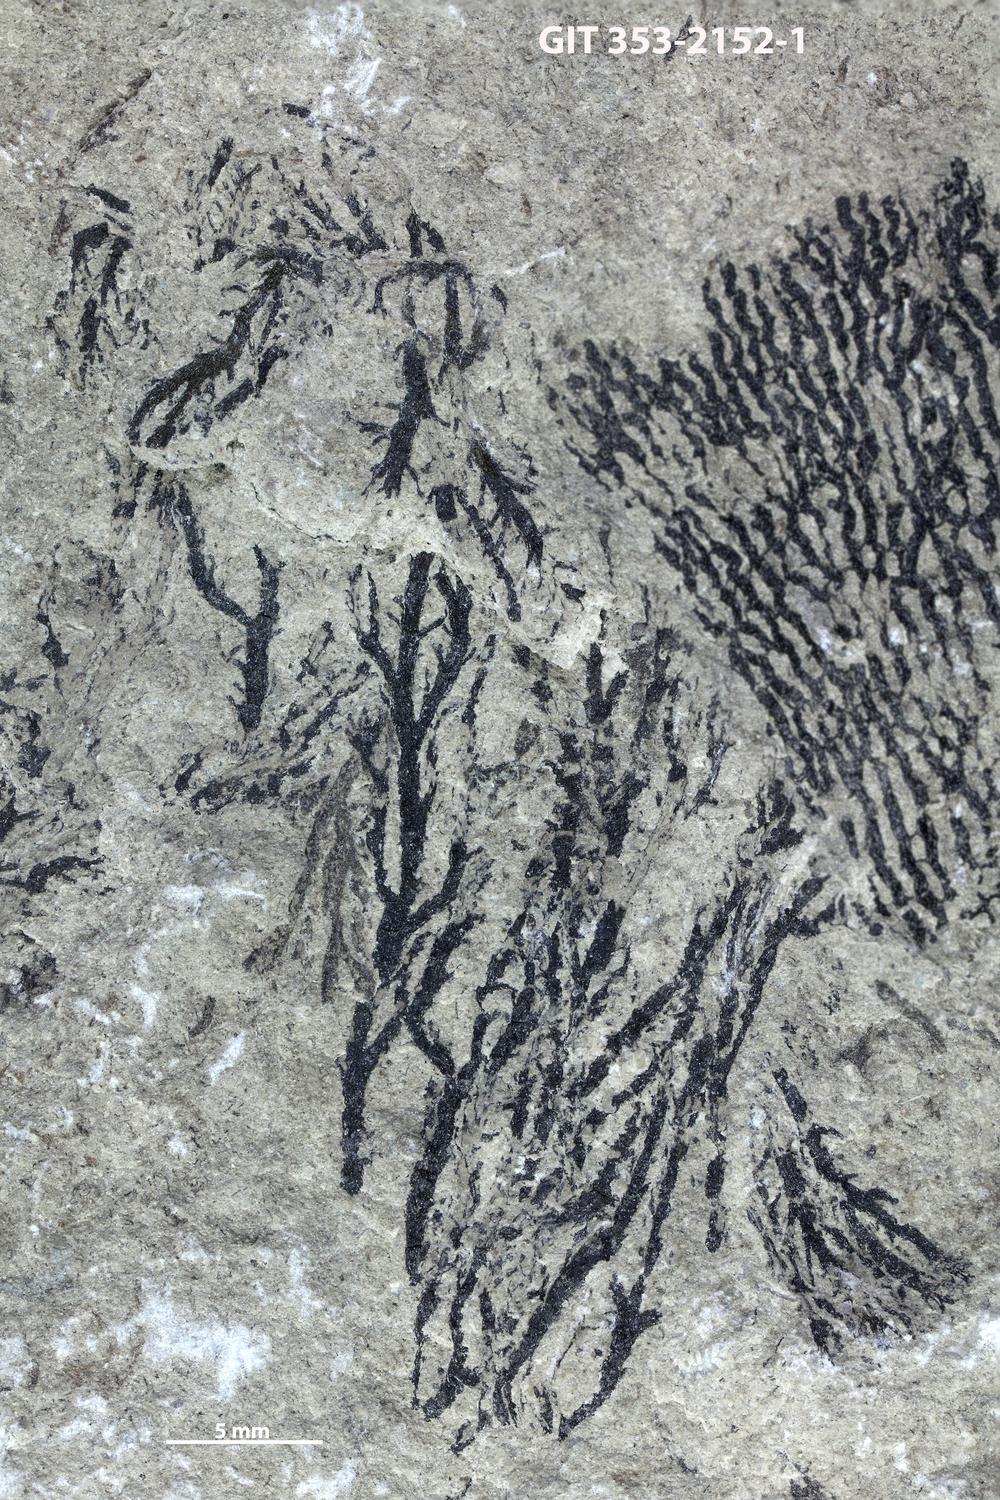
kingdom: Animalia
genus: Acanthograpsus
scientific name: Acanthograpsus
